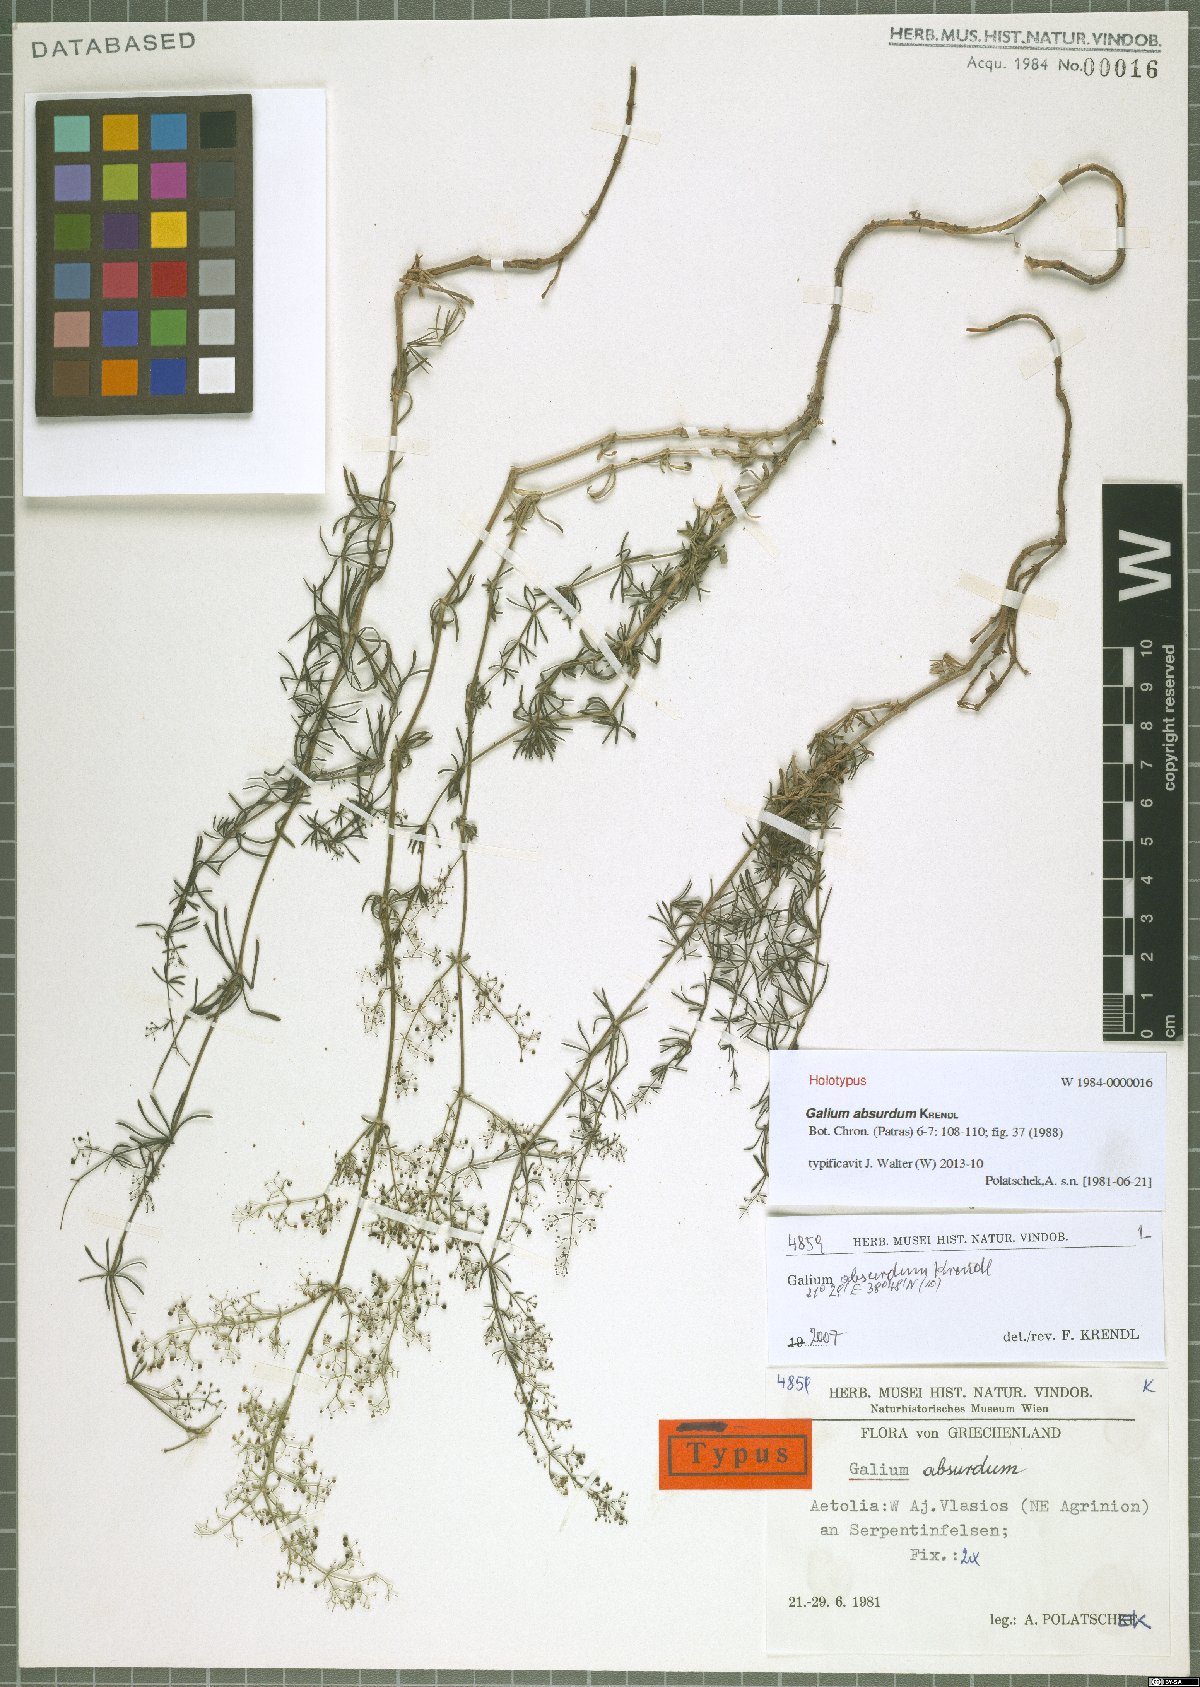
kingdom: Plantae
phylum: Tracheophyta
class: Magnoliopsida
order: Gentianales
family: Rubiaceae
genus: Galium
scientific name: Galium absurdum
